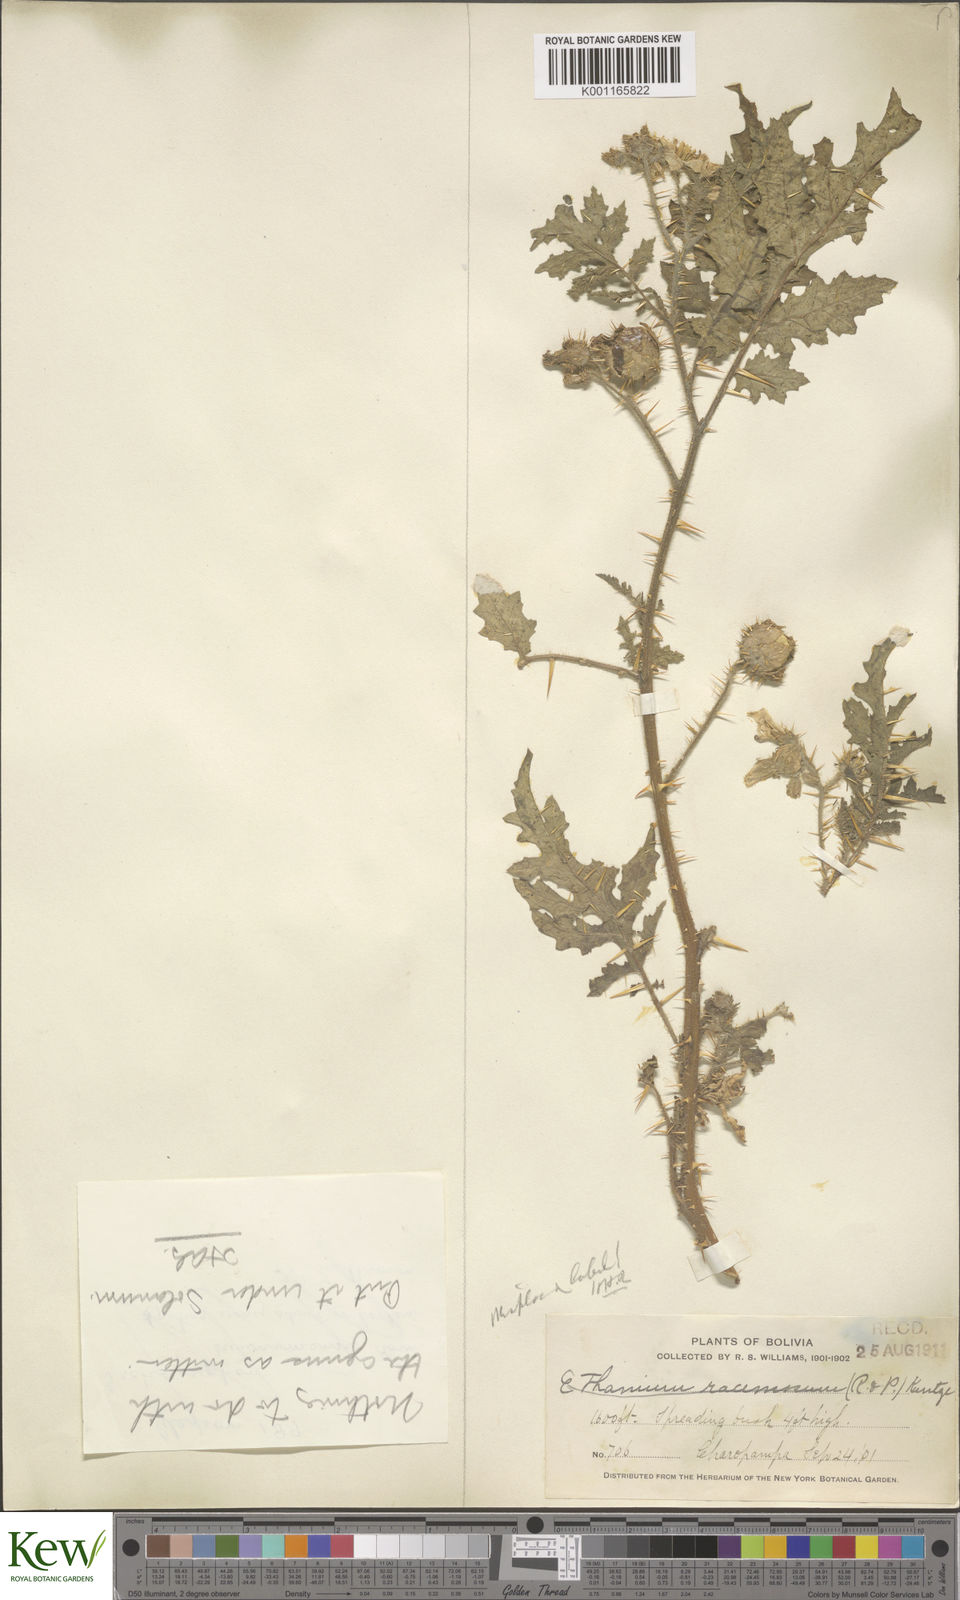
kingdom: Plantae
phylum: Tracheophyta
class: Magnoliopsida
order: Solanales
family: Solanaceae
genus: Solanum
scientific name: Solanum sisymbriifolium
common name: Red buffalo-bur
